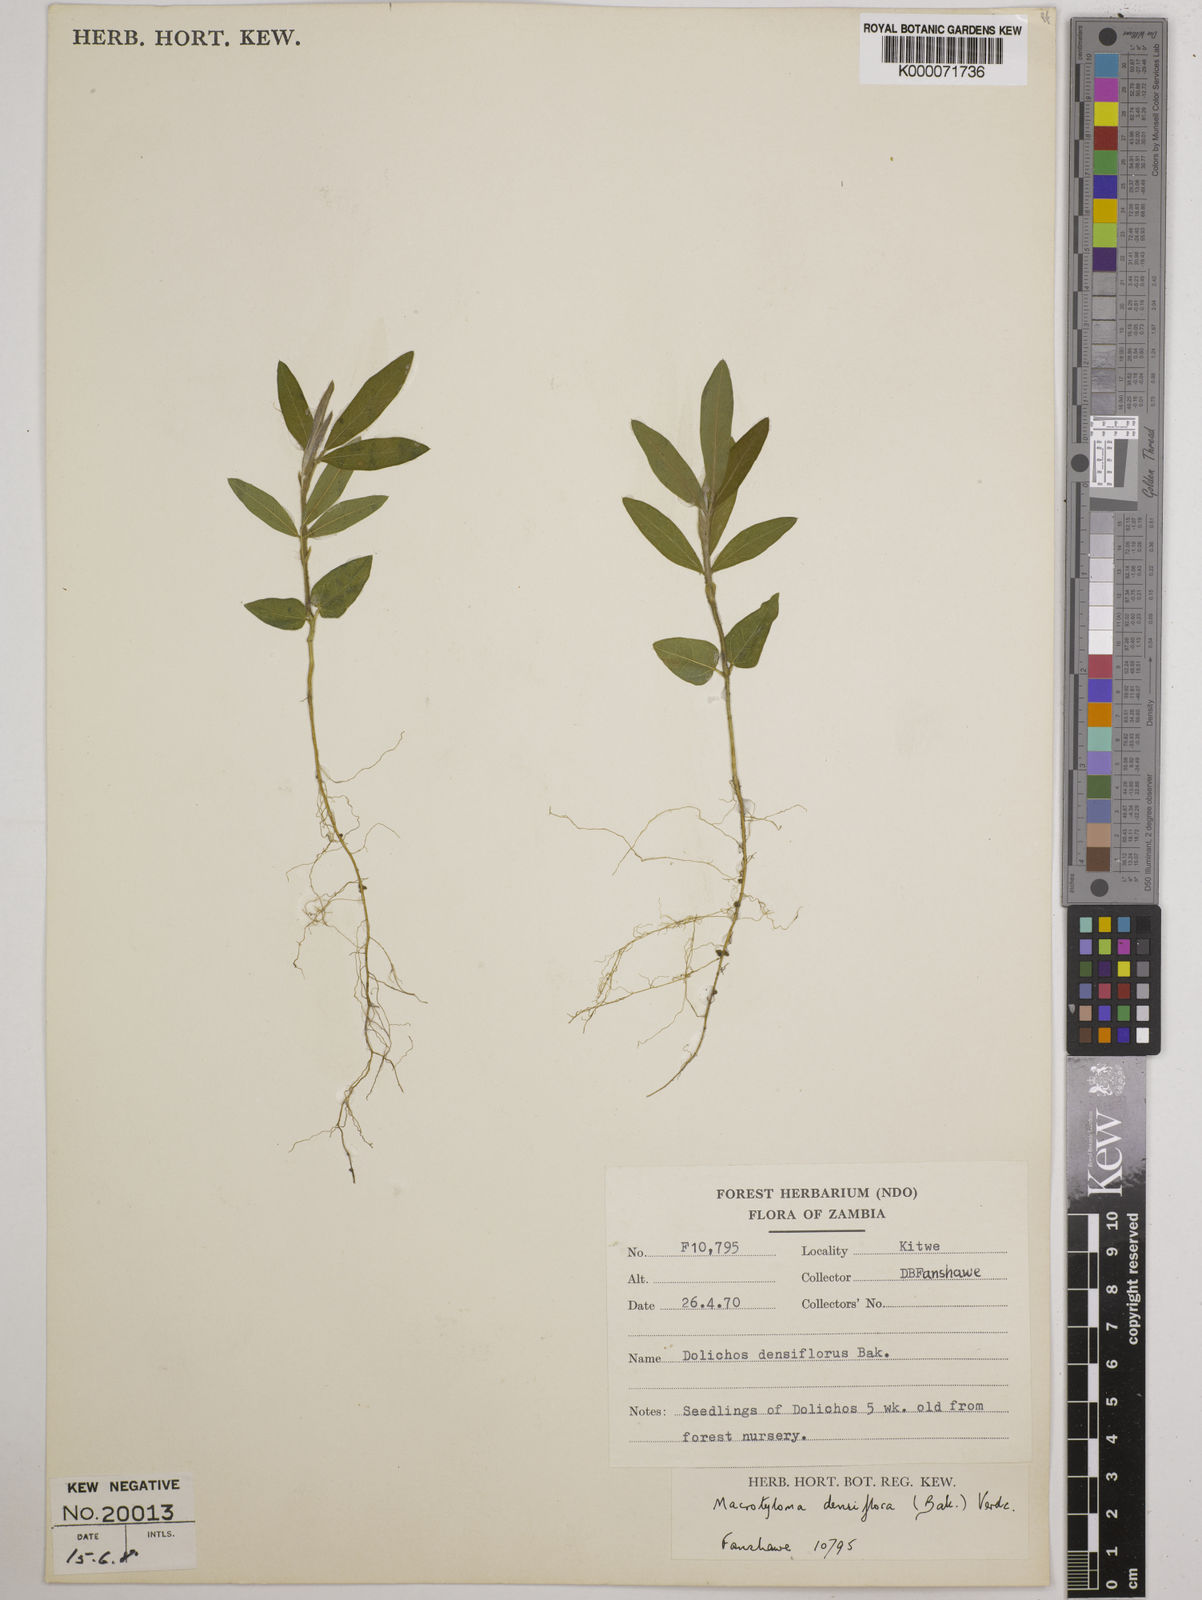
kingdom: Plantae
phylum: Tracheophyta
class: Magnoliopsida
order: Fabales
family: Fabaceae
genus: Macrotyloma
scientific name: Macrotyloma densiflorum
